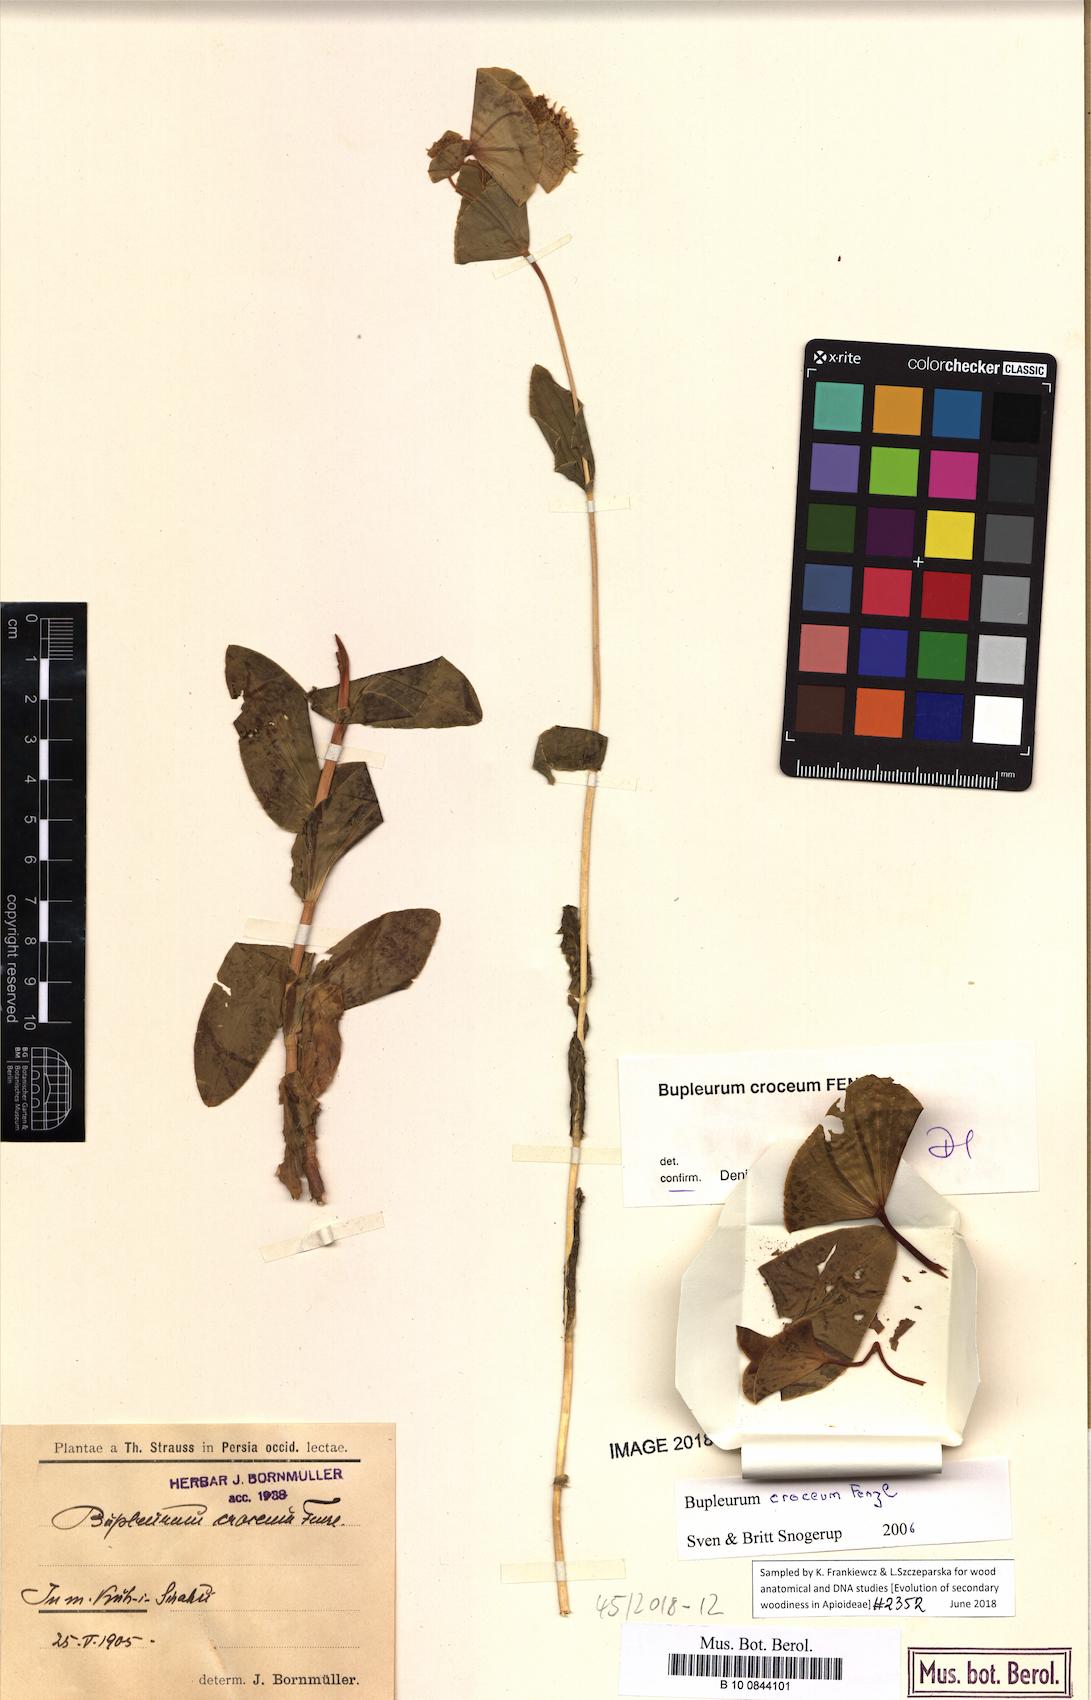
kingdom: Plantae
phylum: Tracheophyta
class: Magnoliopsida
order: Apiales
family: Apiaceae
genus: Bupleurum
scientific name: Bupleurum croceum
